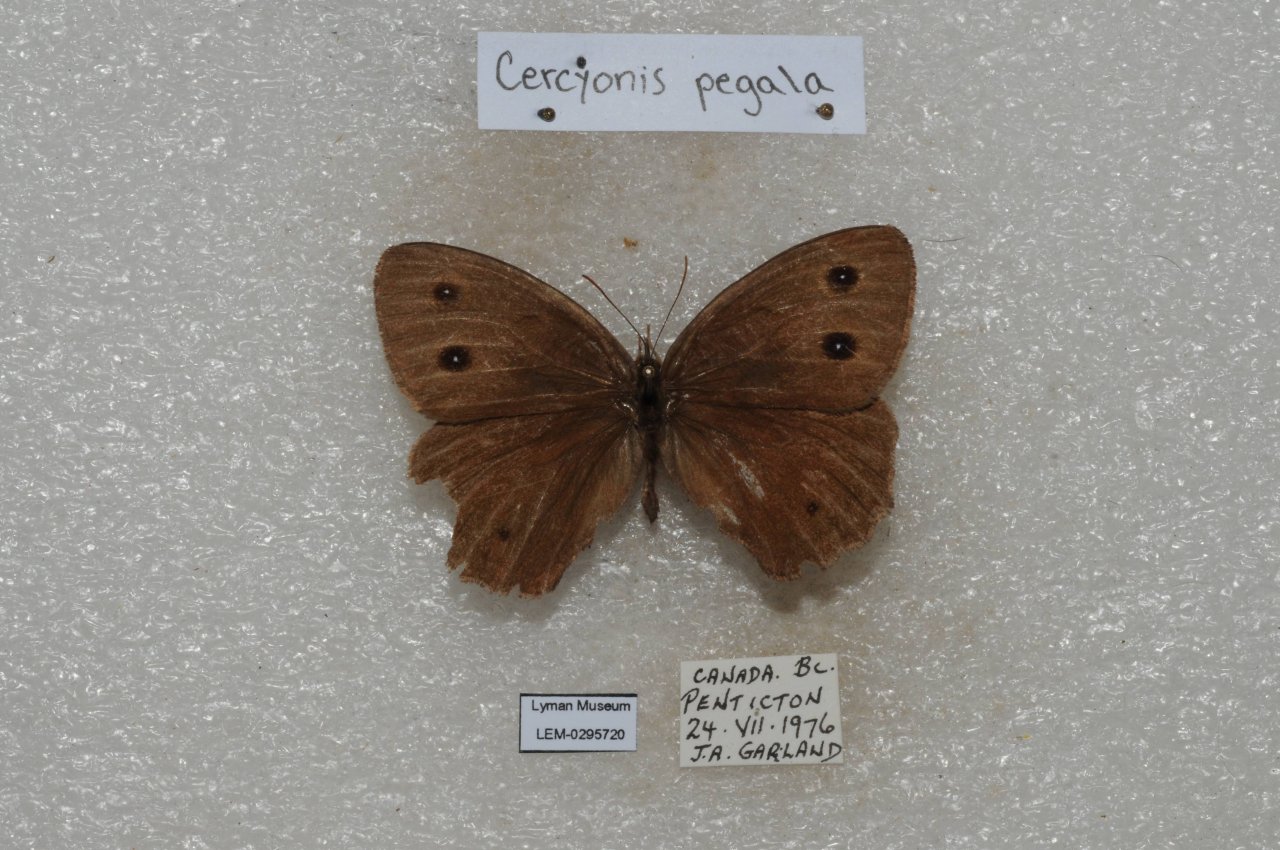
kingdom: Animalia
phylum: Arthropoda
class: Insecta
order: Lepidoptera
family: Nymphalidae
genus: Cercyonis
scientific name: Cercyonis pegala
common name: Common Wood-Nymph
